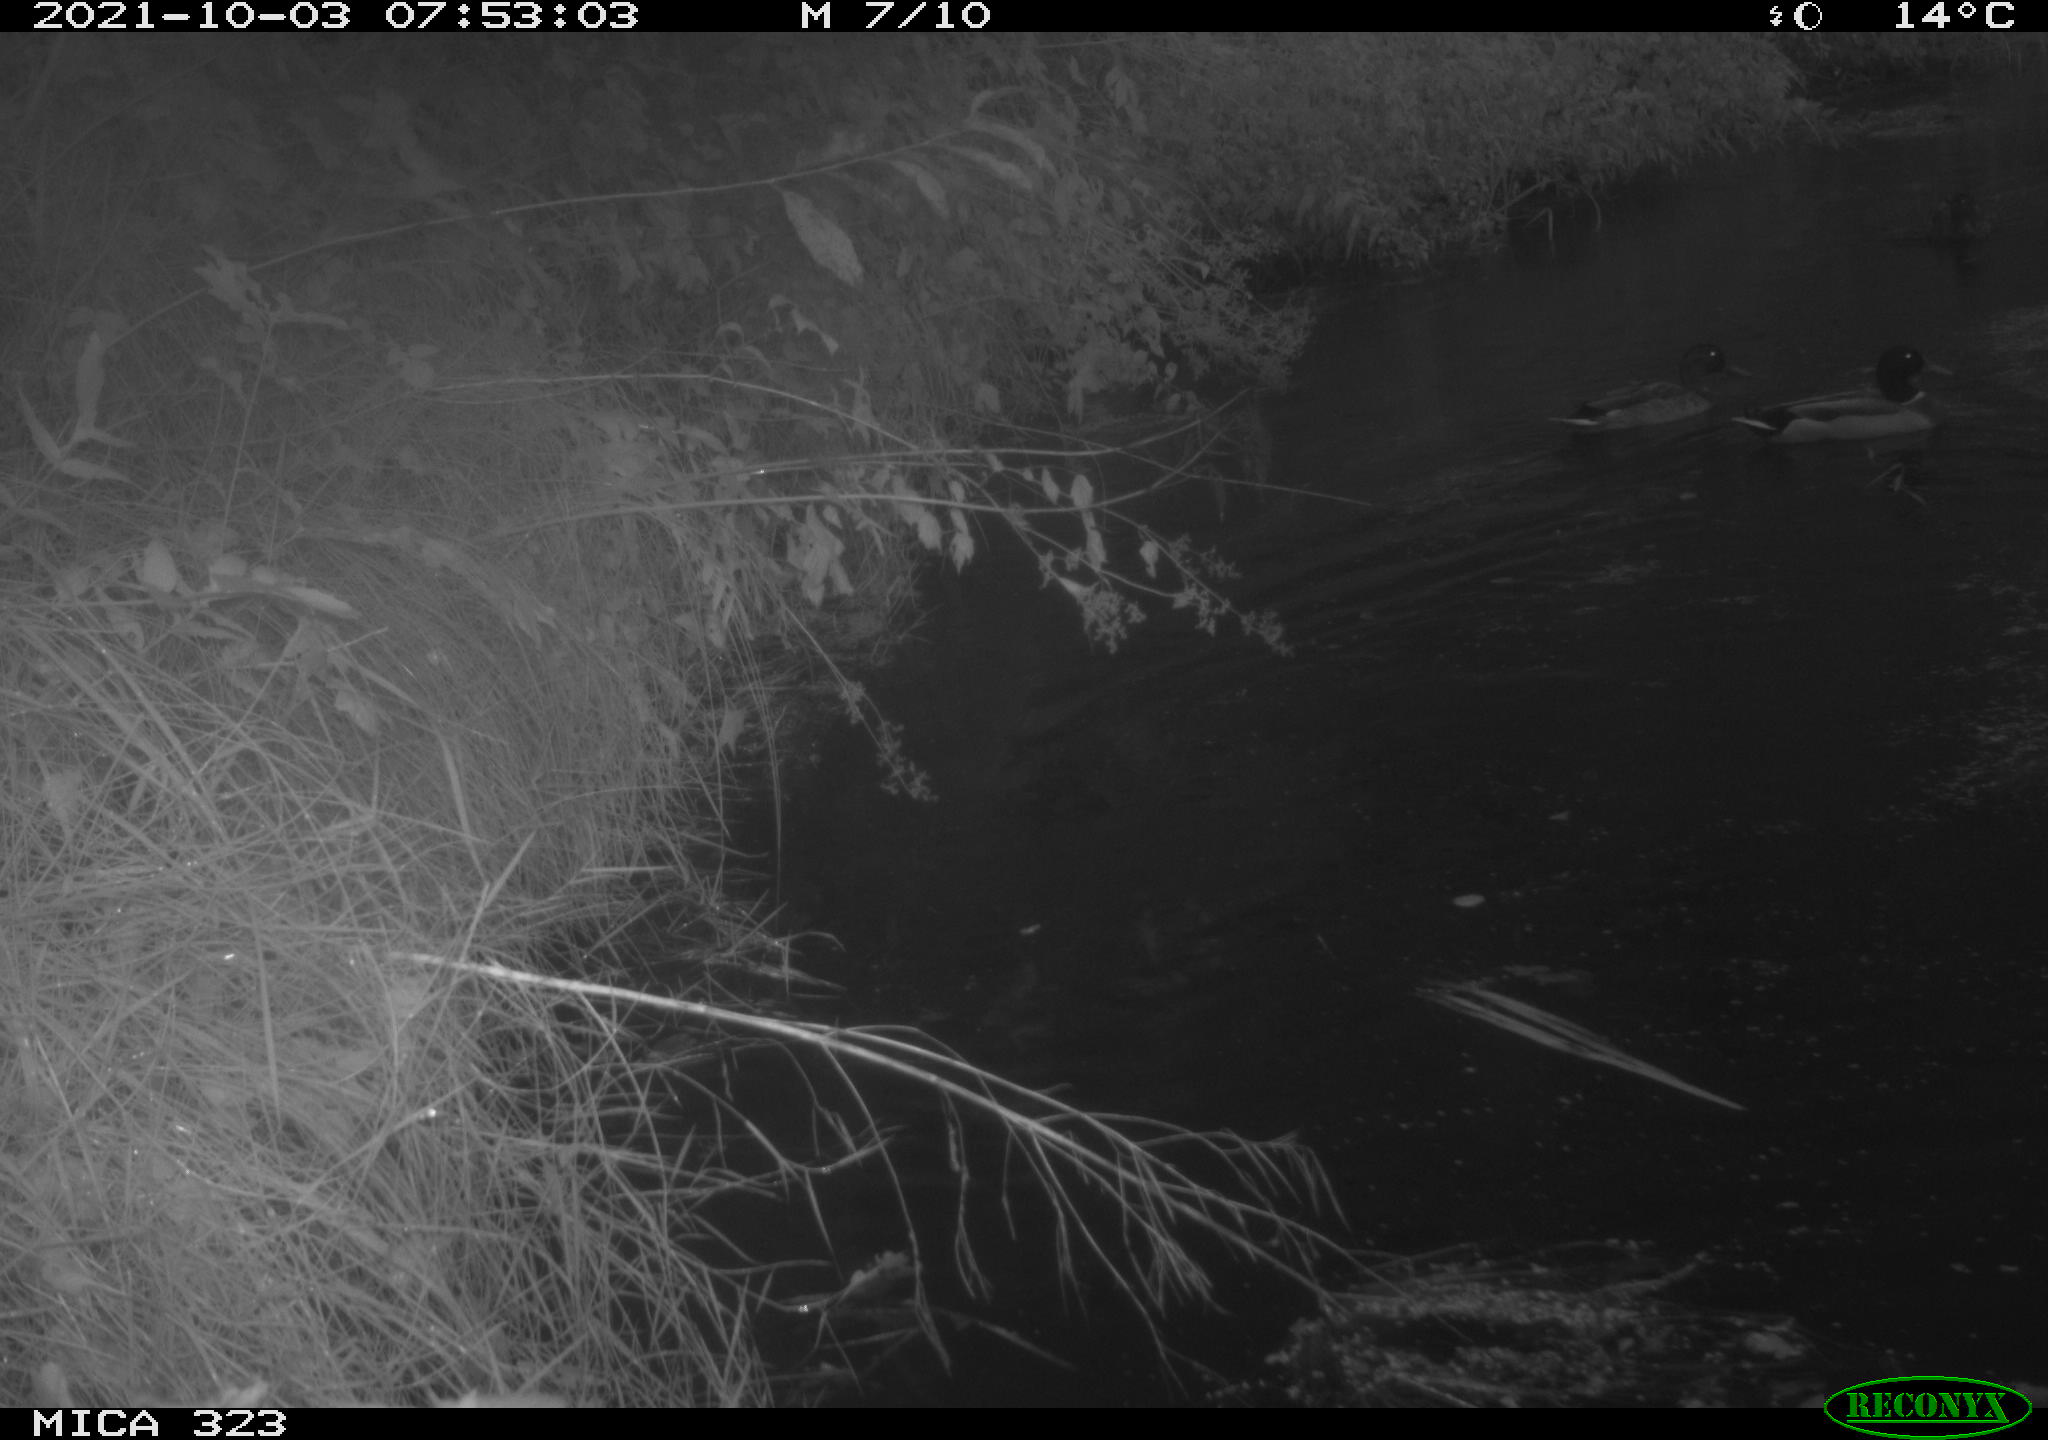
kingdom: Animalia
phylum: Chordata
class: Aves
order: Anseriformes
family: Anatidae
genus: Anas
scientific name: Anas platyrhynchos
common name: Mallard
